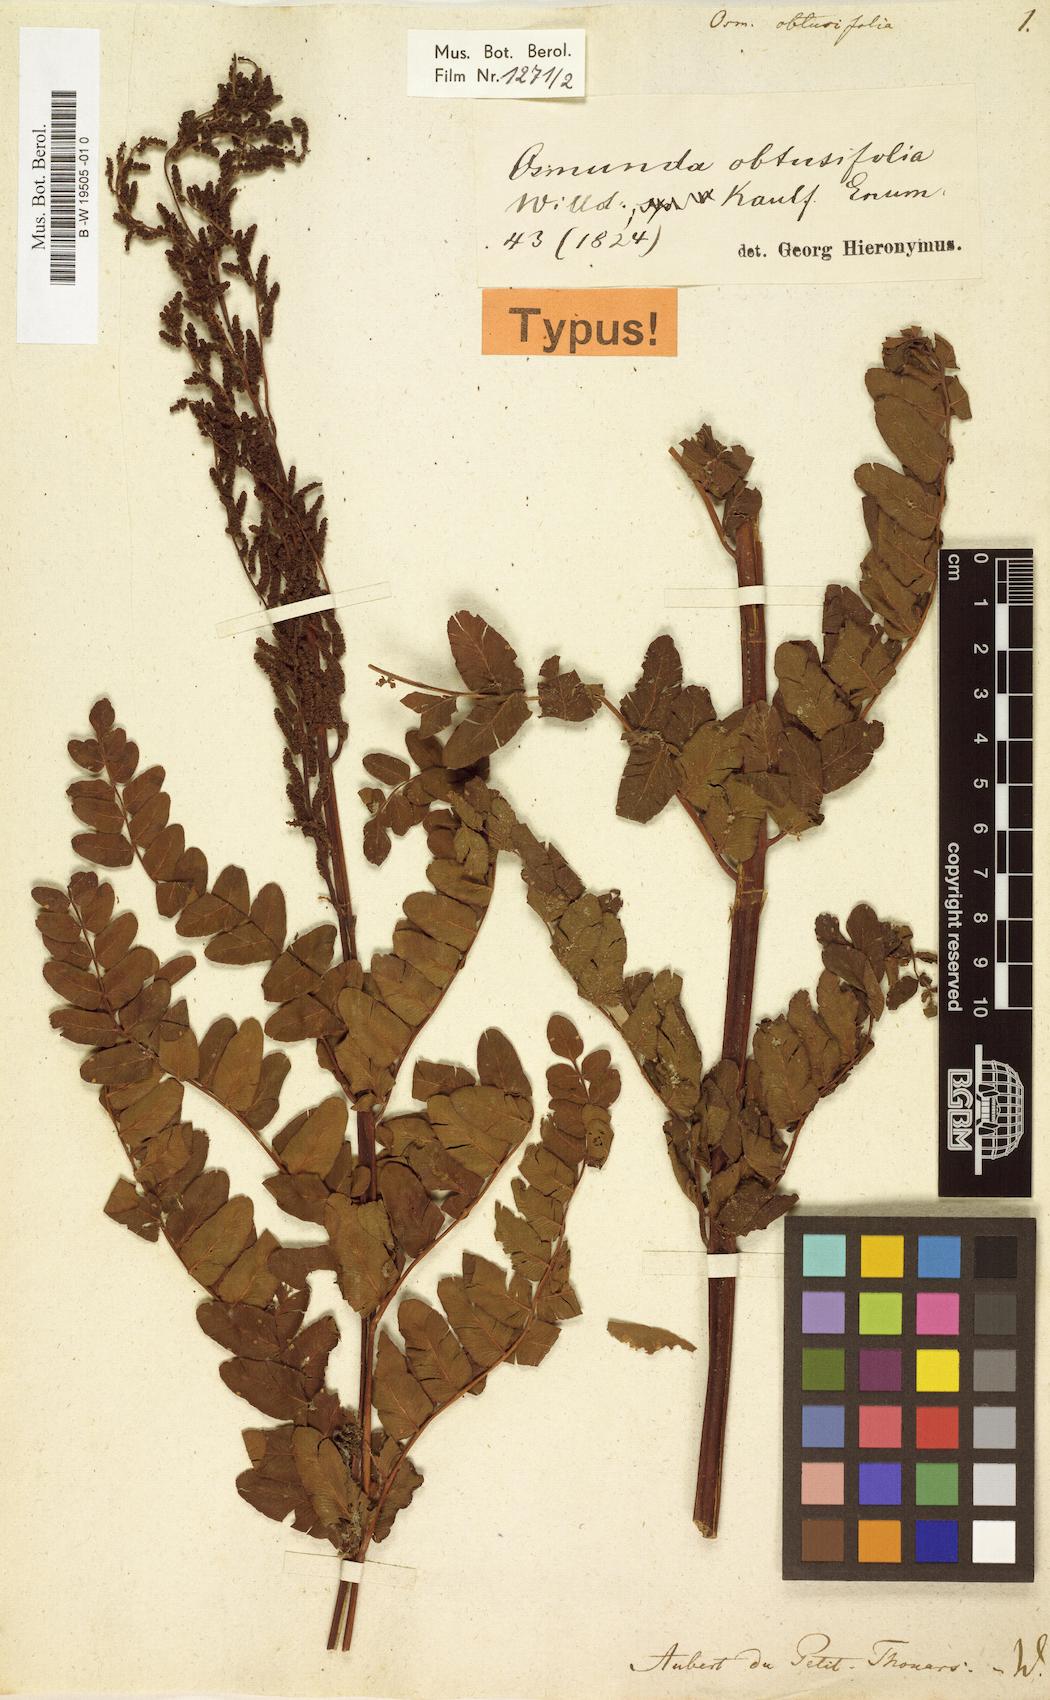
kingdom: Plantae
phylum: Tracheophyta
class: Polypodiopsida
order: Osmundales
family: Osmundaceae
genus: Osmunda
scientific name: Osmunda regalis
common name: Royal fern
